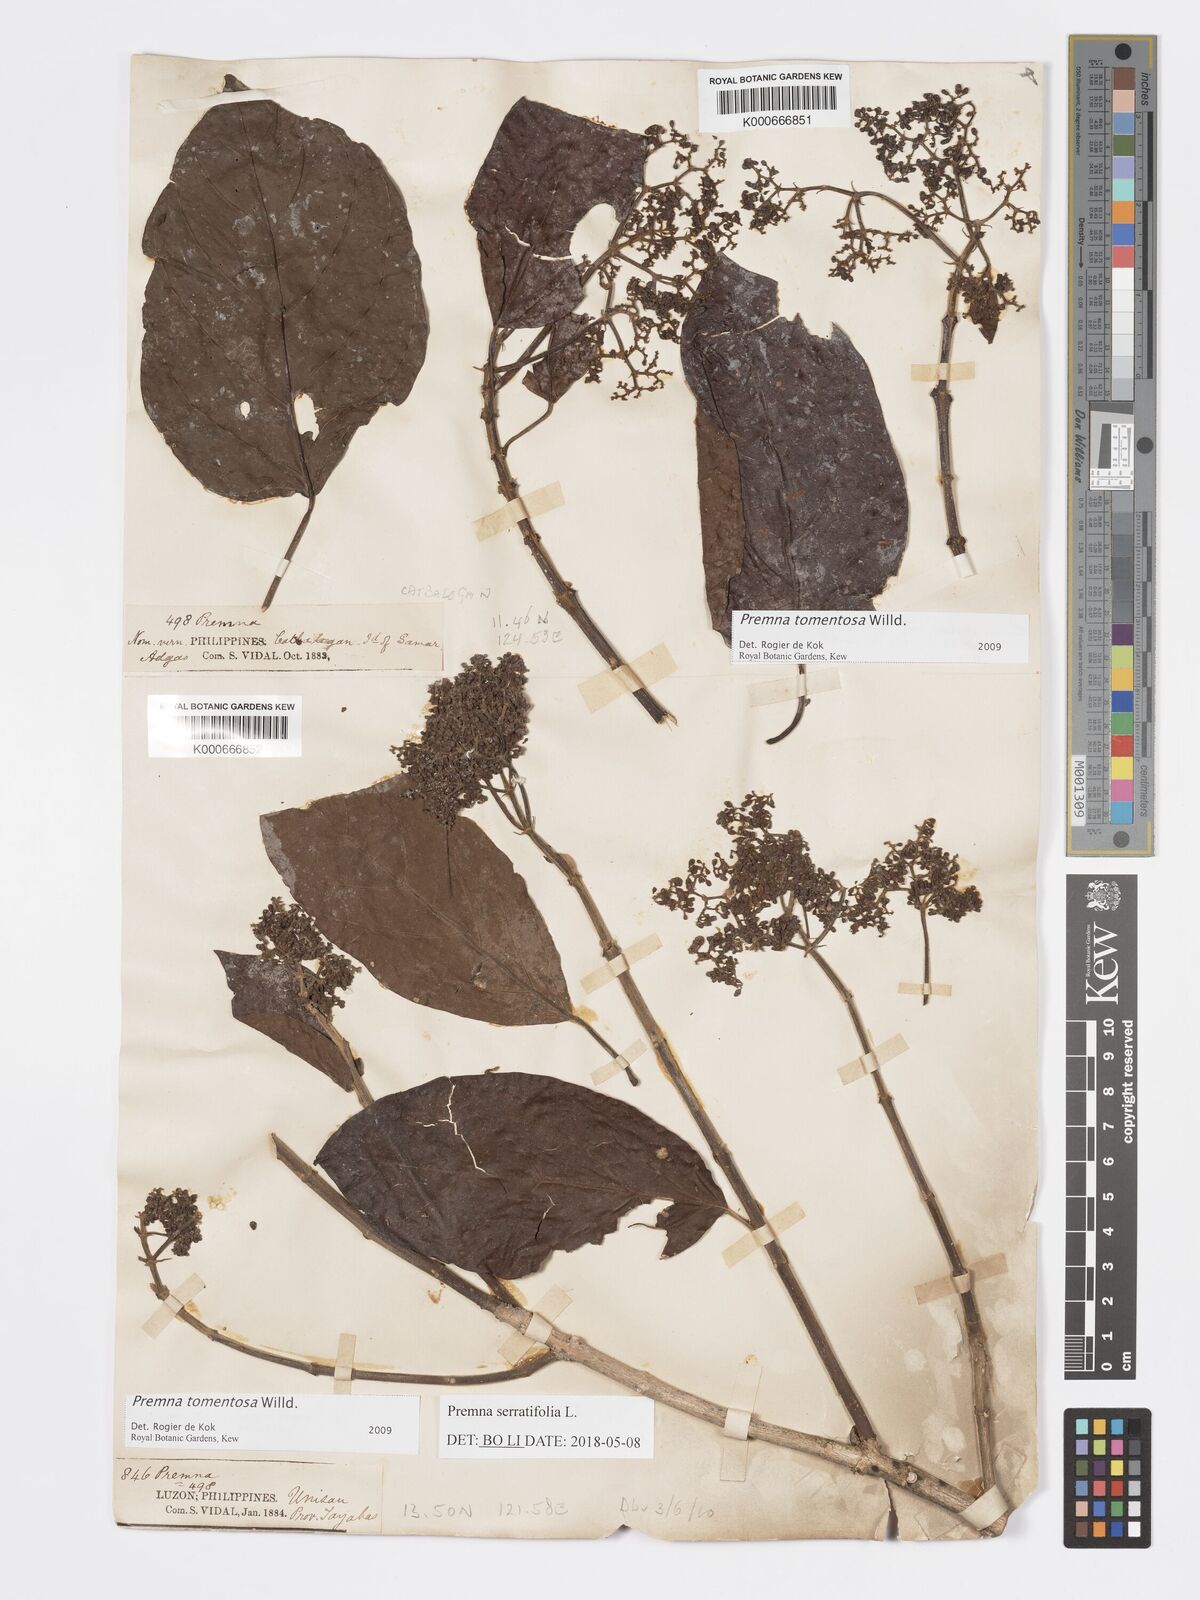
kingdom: Plantae
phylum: Tracheophyta
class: Magnoliopsida
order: Lamiales
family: Lamiaceae
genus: Premna
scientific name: Premna tomentosa
